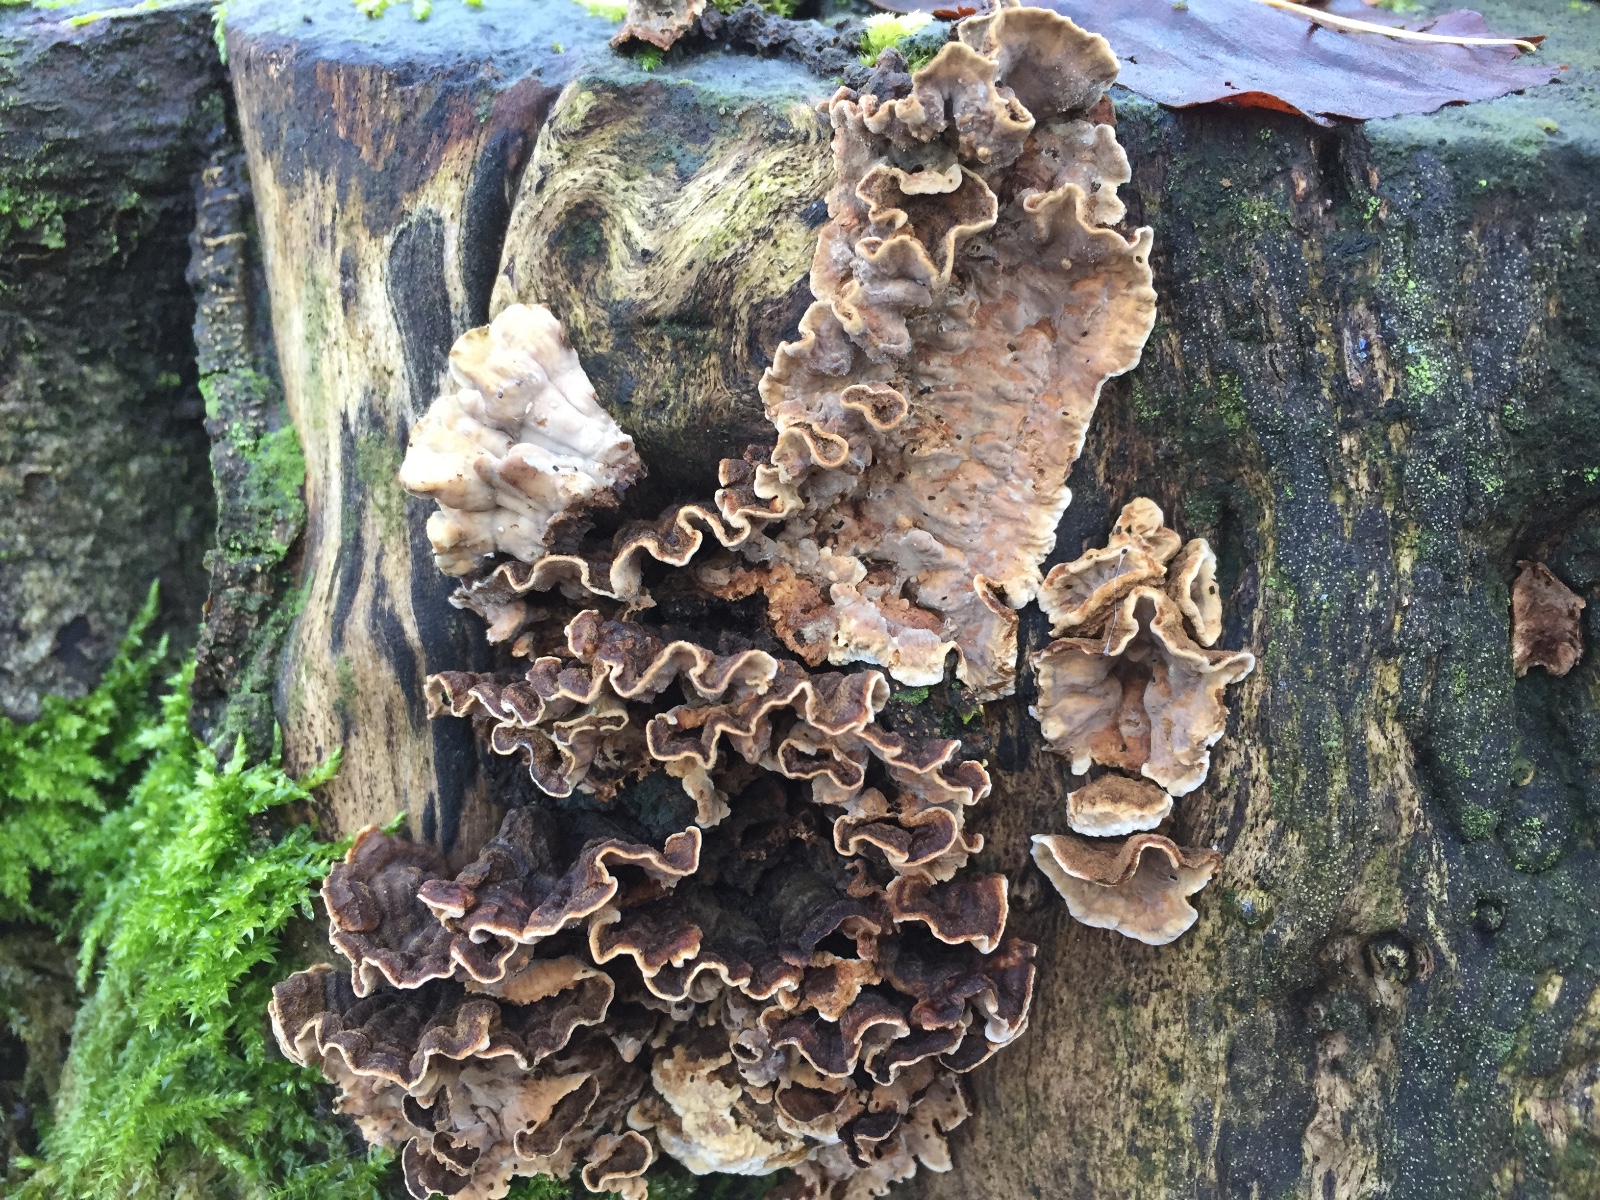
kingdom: Fungi
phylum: Basidiomycota
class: Agaricomycetes
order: Russulales
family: Hericiaceae
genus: Laxitextum
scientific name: Laxitextum bicolor
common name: tvefarvet filtskind
